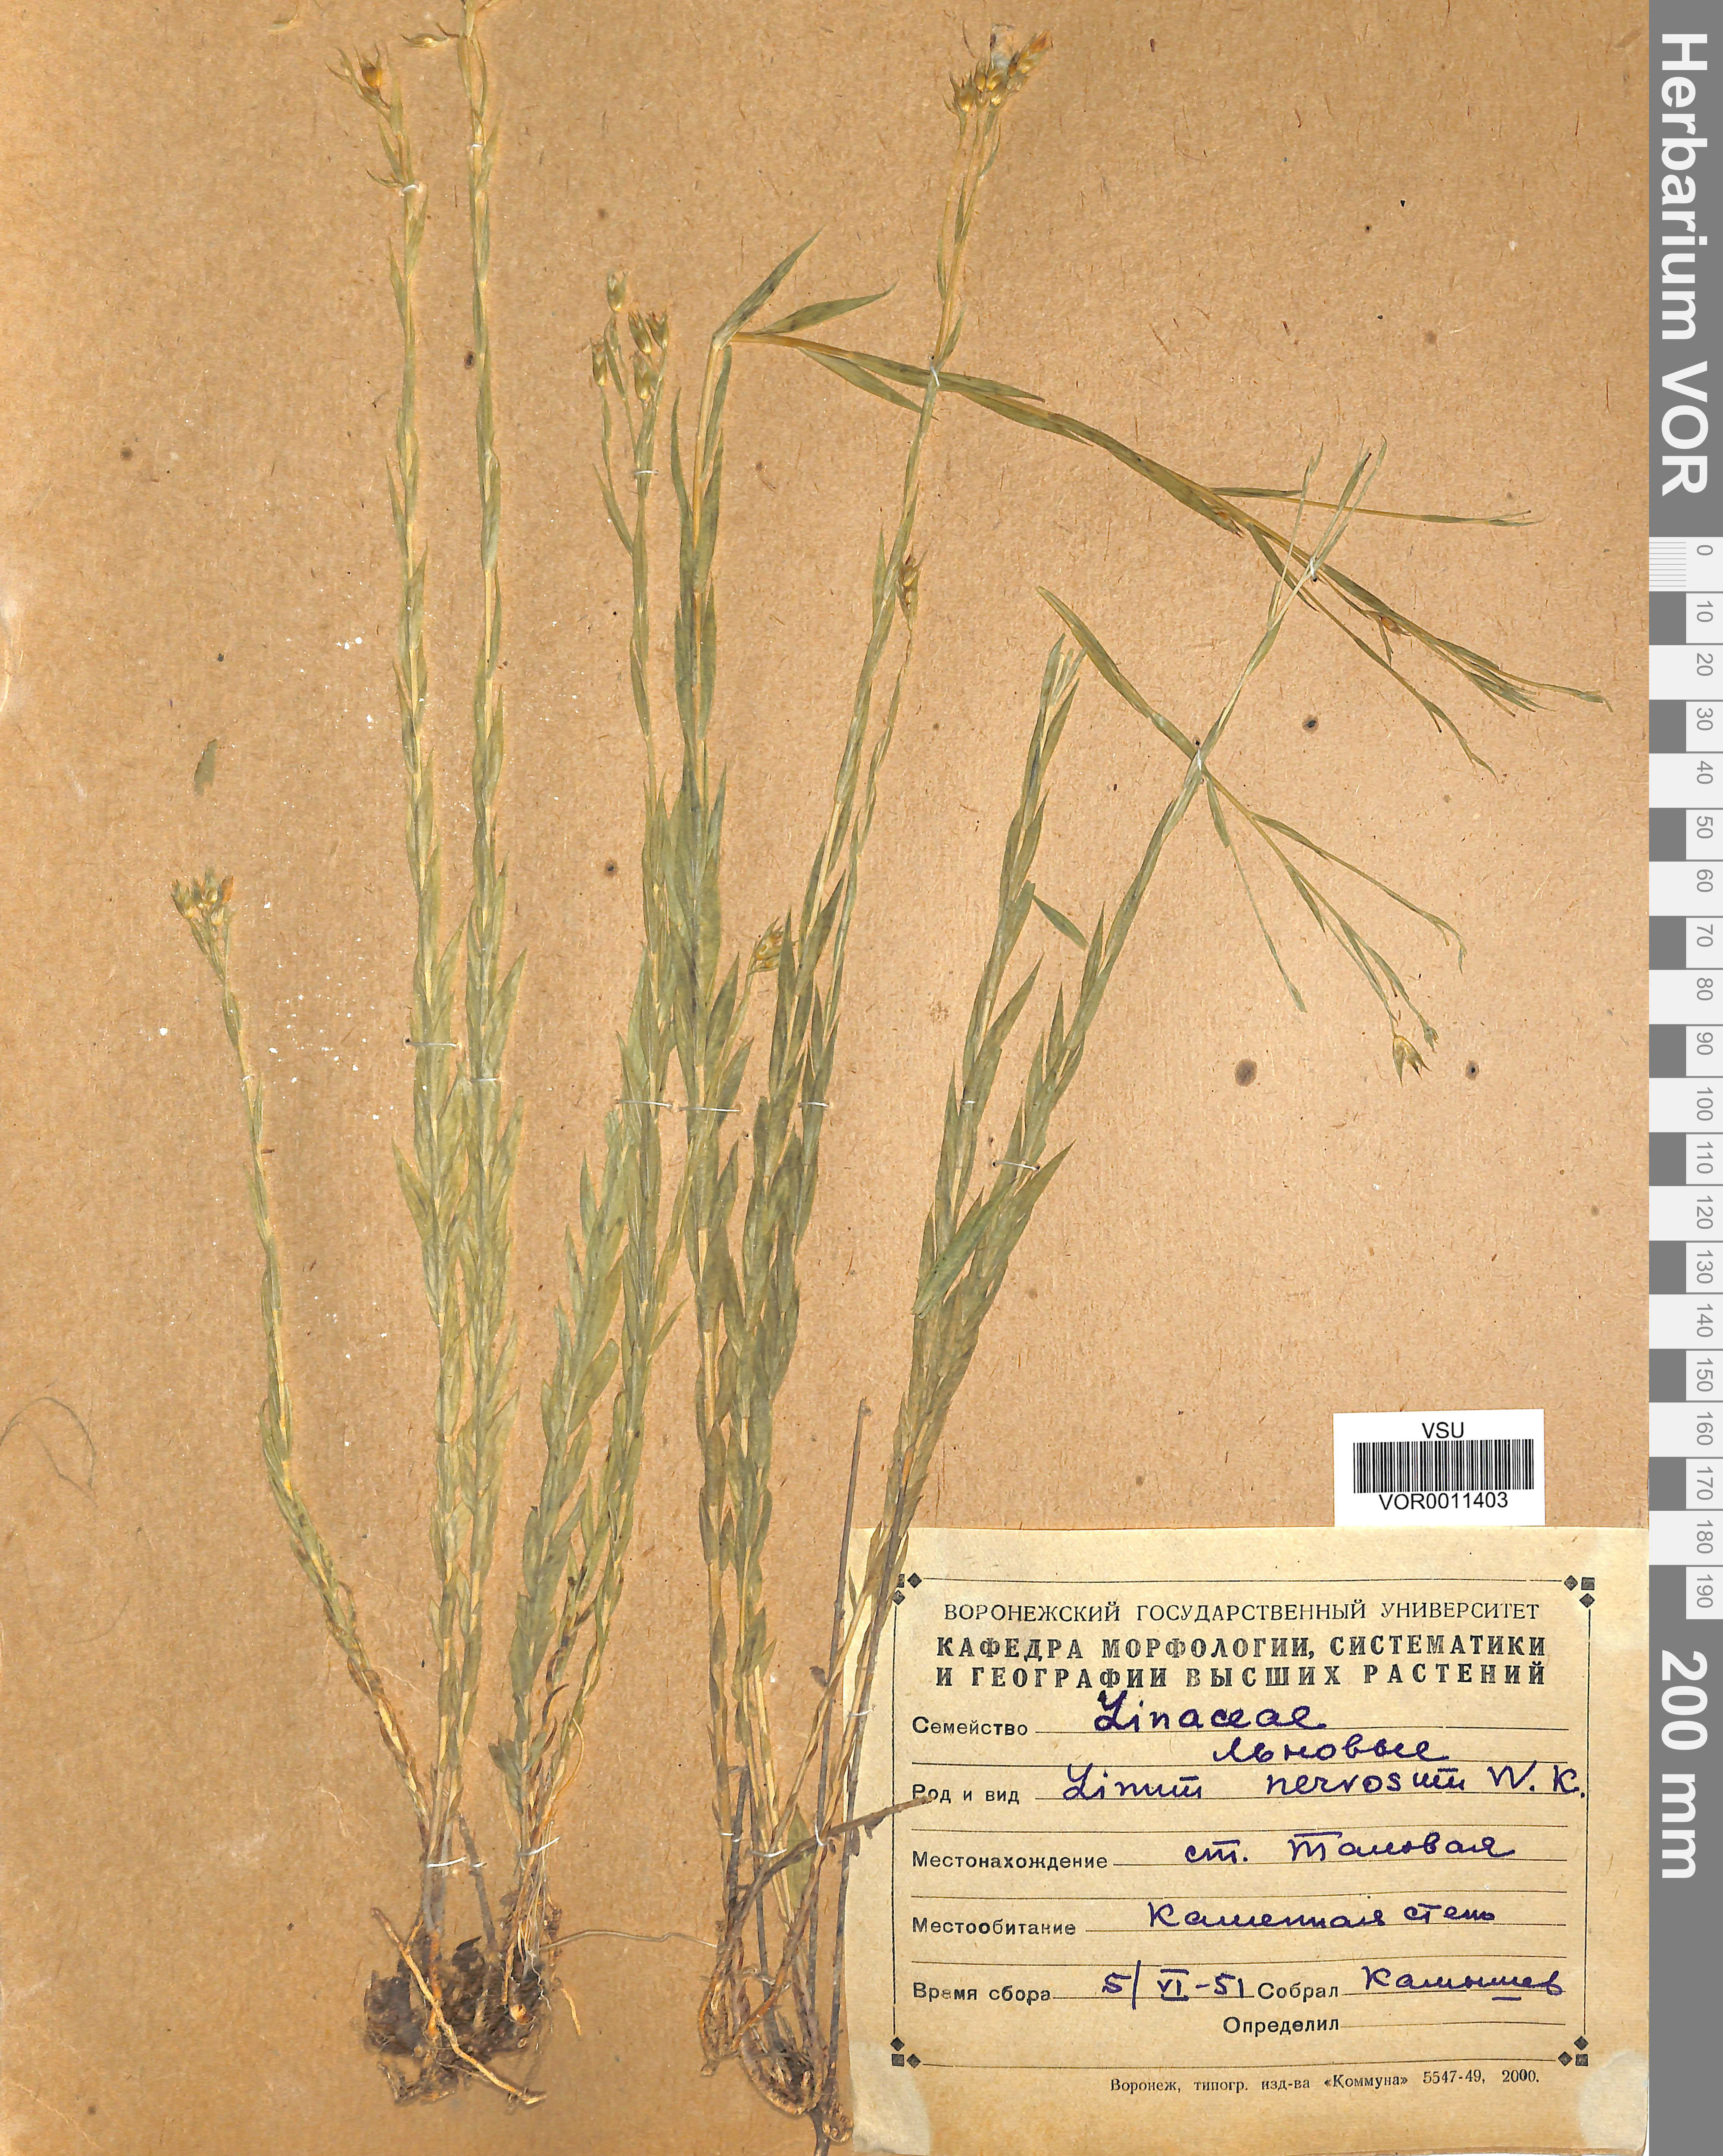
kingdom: Plantae
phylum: Tracheophyta
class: Magnoliopsida
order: Malpighiales
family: Linaceae
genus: Linum
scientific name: Linum nervosum
